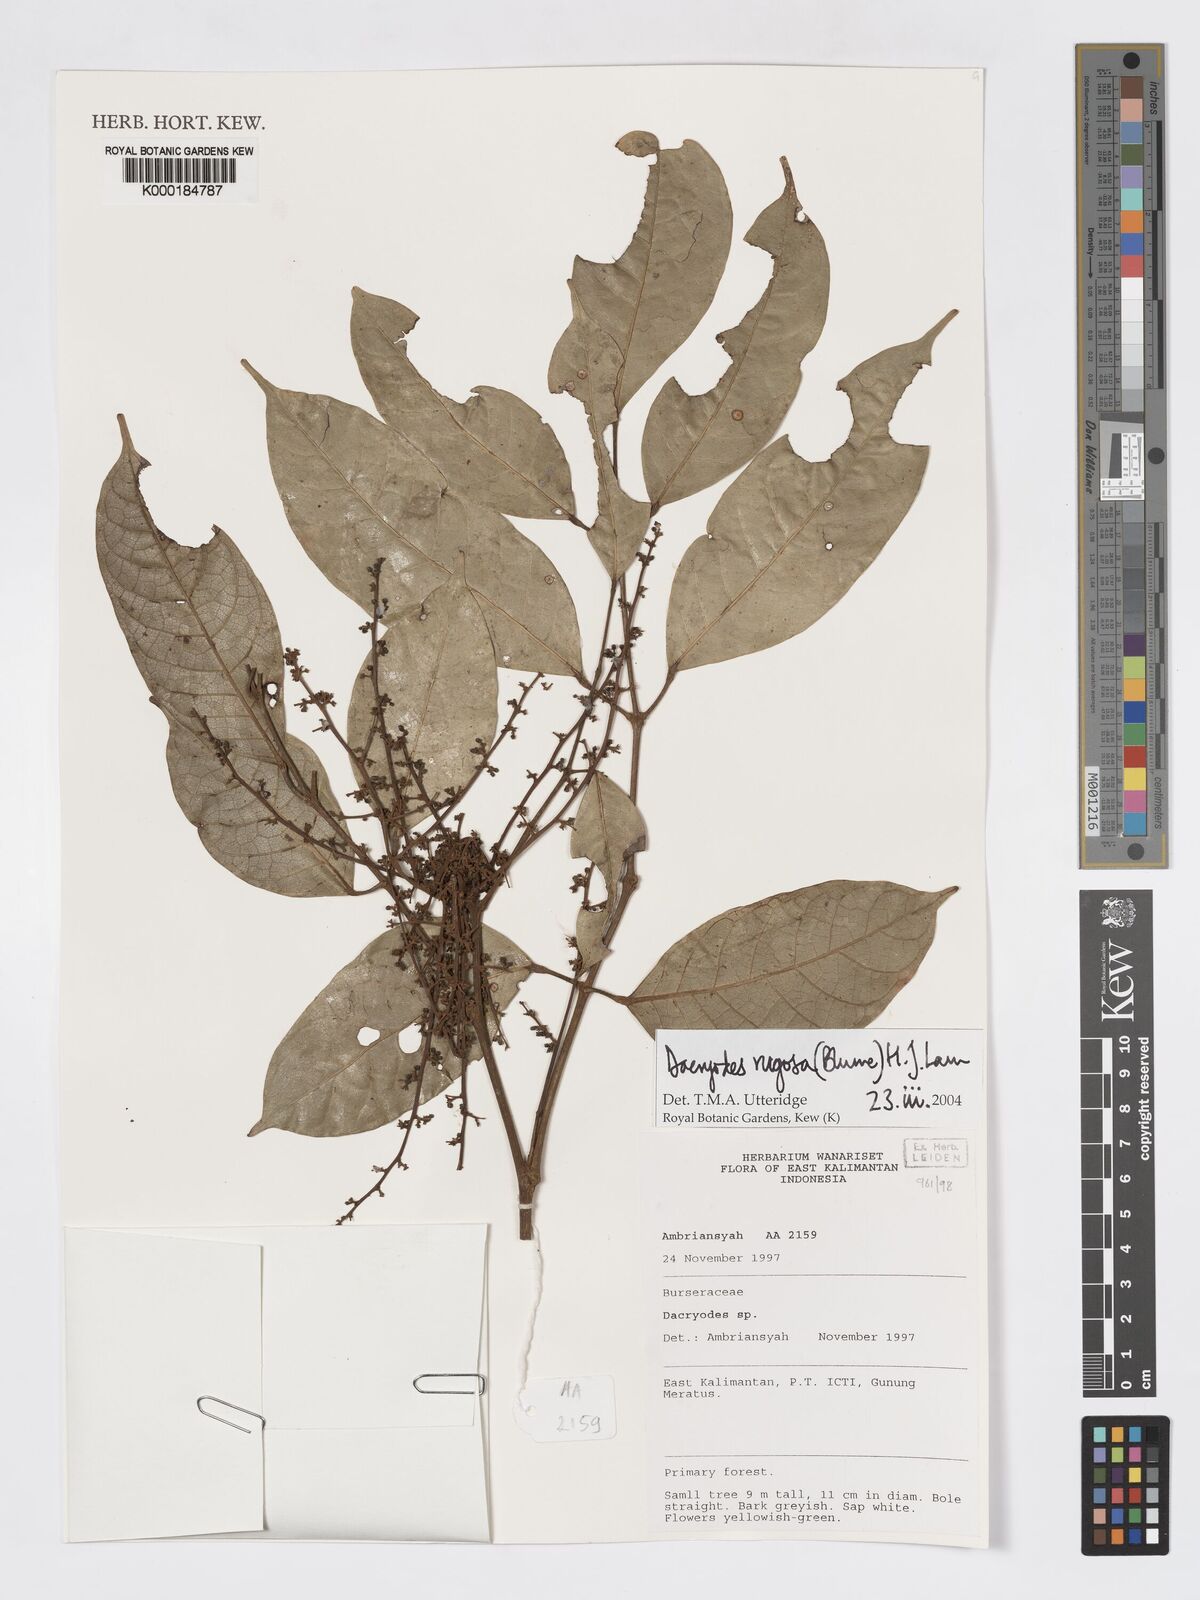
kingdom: Plantae
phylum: Tracheophyta
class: Magnoliopsida
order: Sapindales
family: Burseraceae
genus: Dacryodes
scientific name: Dacryodes rugosa
